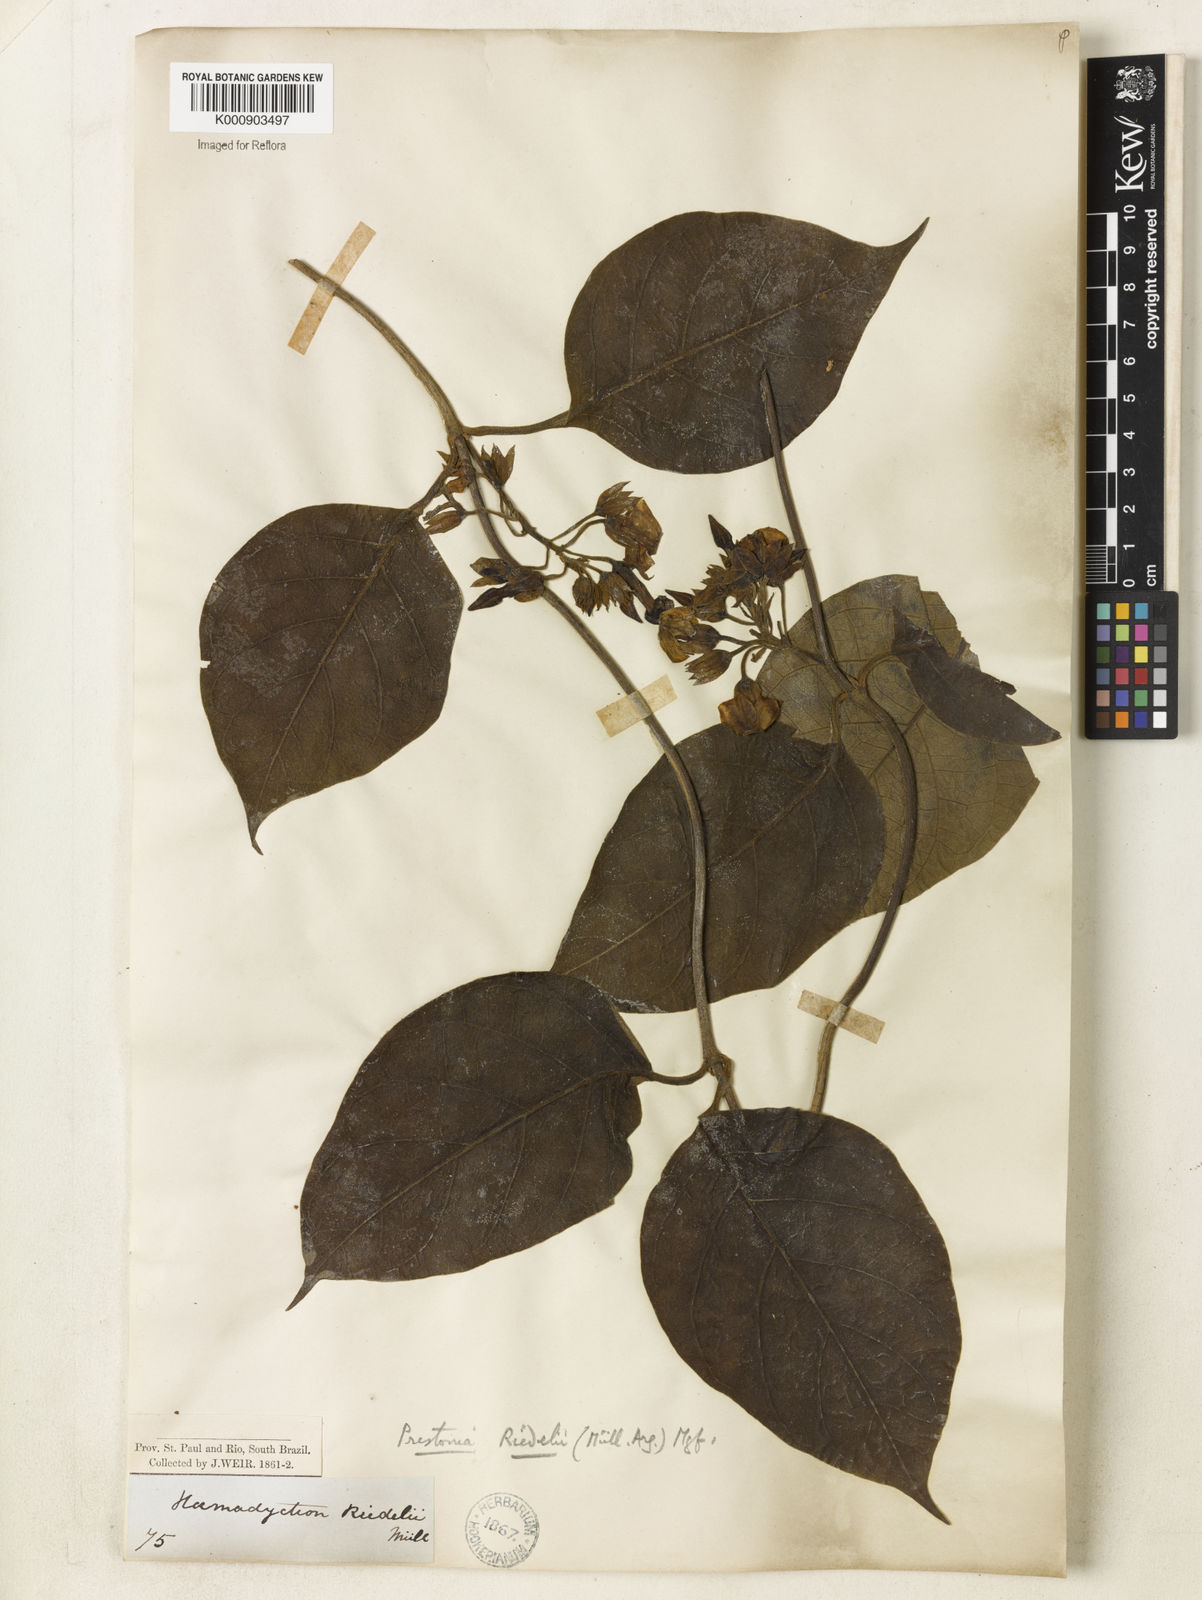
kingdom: Plantae
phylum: Tracheophyta
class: Magnoliopsida
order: Gentianales
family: Apocynaceae
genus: Prestonia
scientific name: Prestonia
